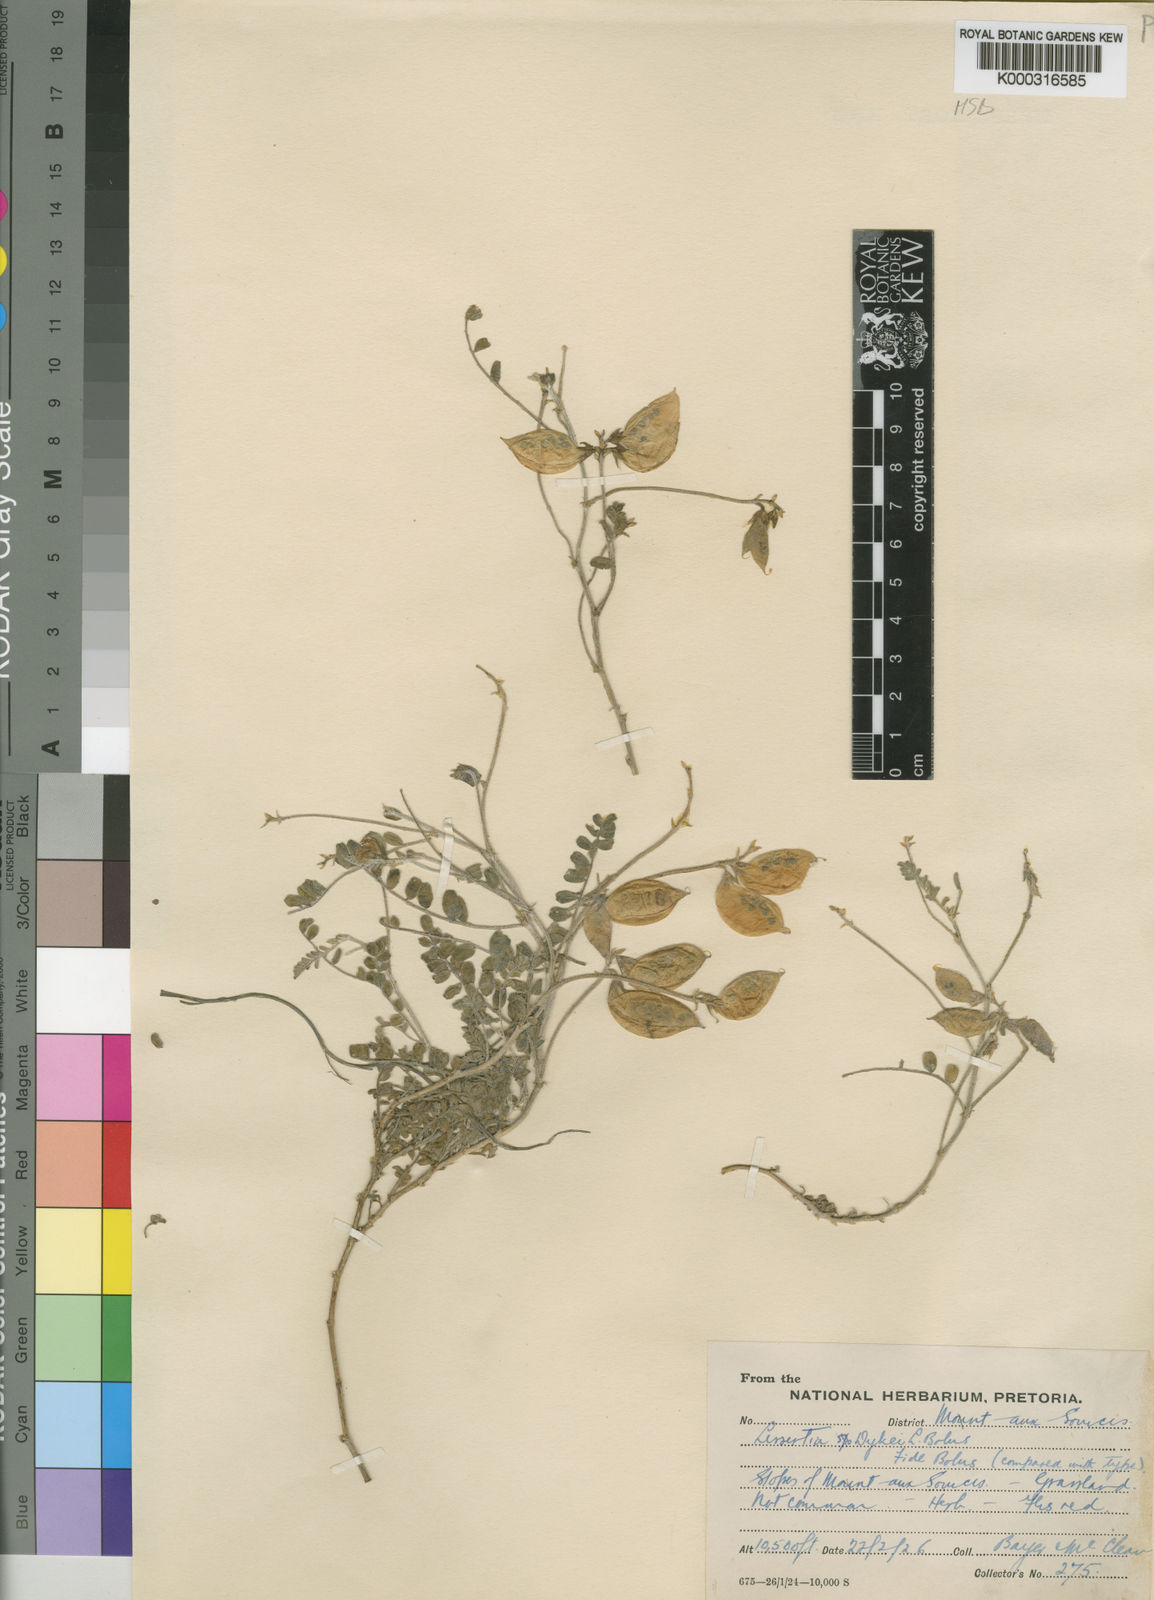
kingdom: Plantae
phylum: Tracheophyta
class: Magnoliopsida
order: Fabales
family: Fabaceae
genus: Lessertia
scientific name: Lessertia dykei
